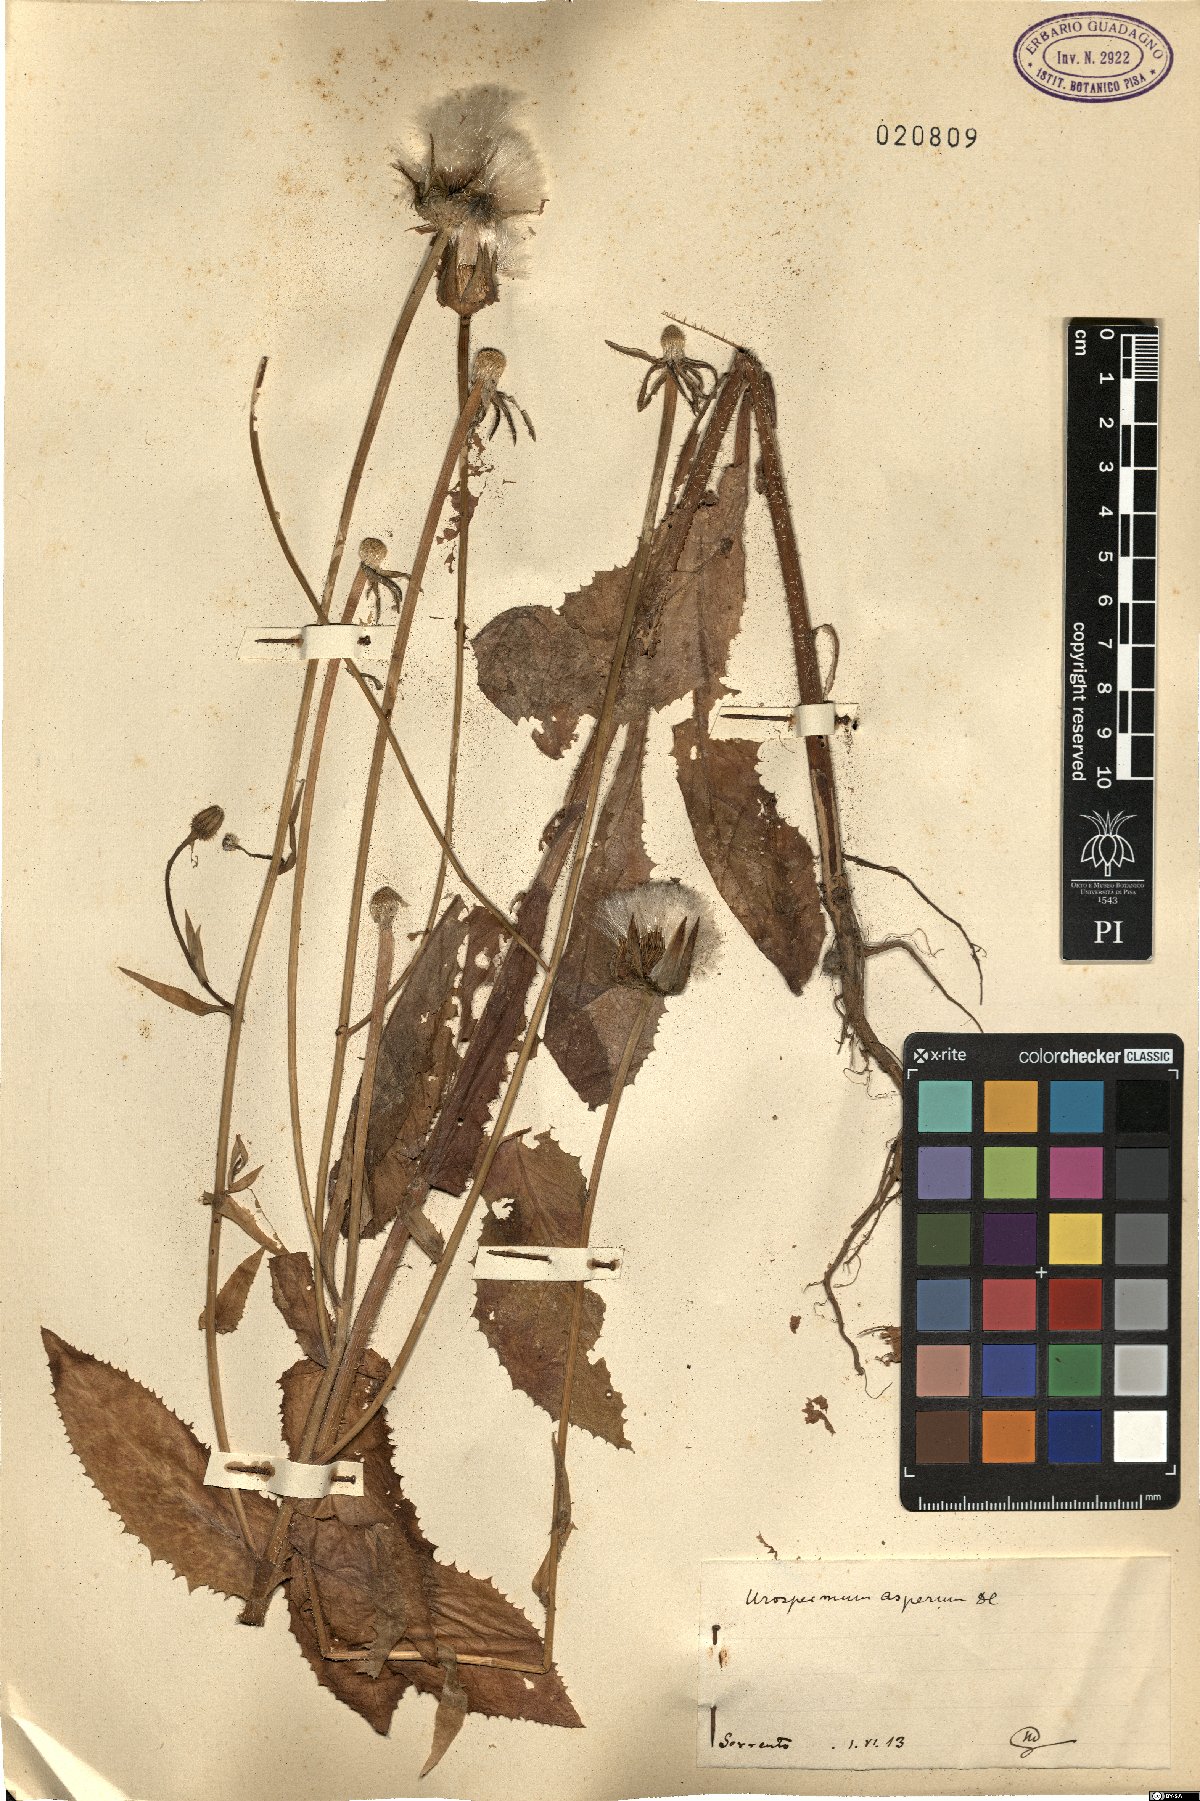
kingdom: Plantae
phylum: Tracheophyta
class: Magnoliopsida
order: Asterales
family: Asteraceae
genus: Urospermum
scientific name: Urospermum picroides
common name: False hawkbit
